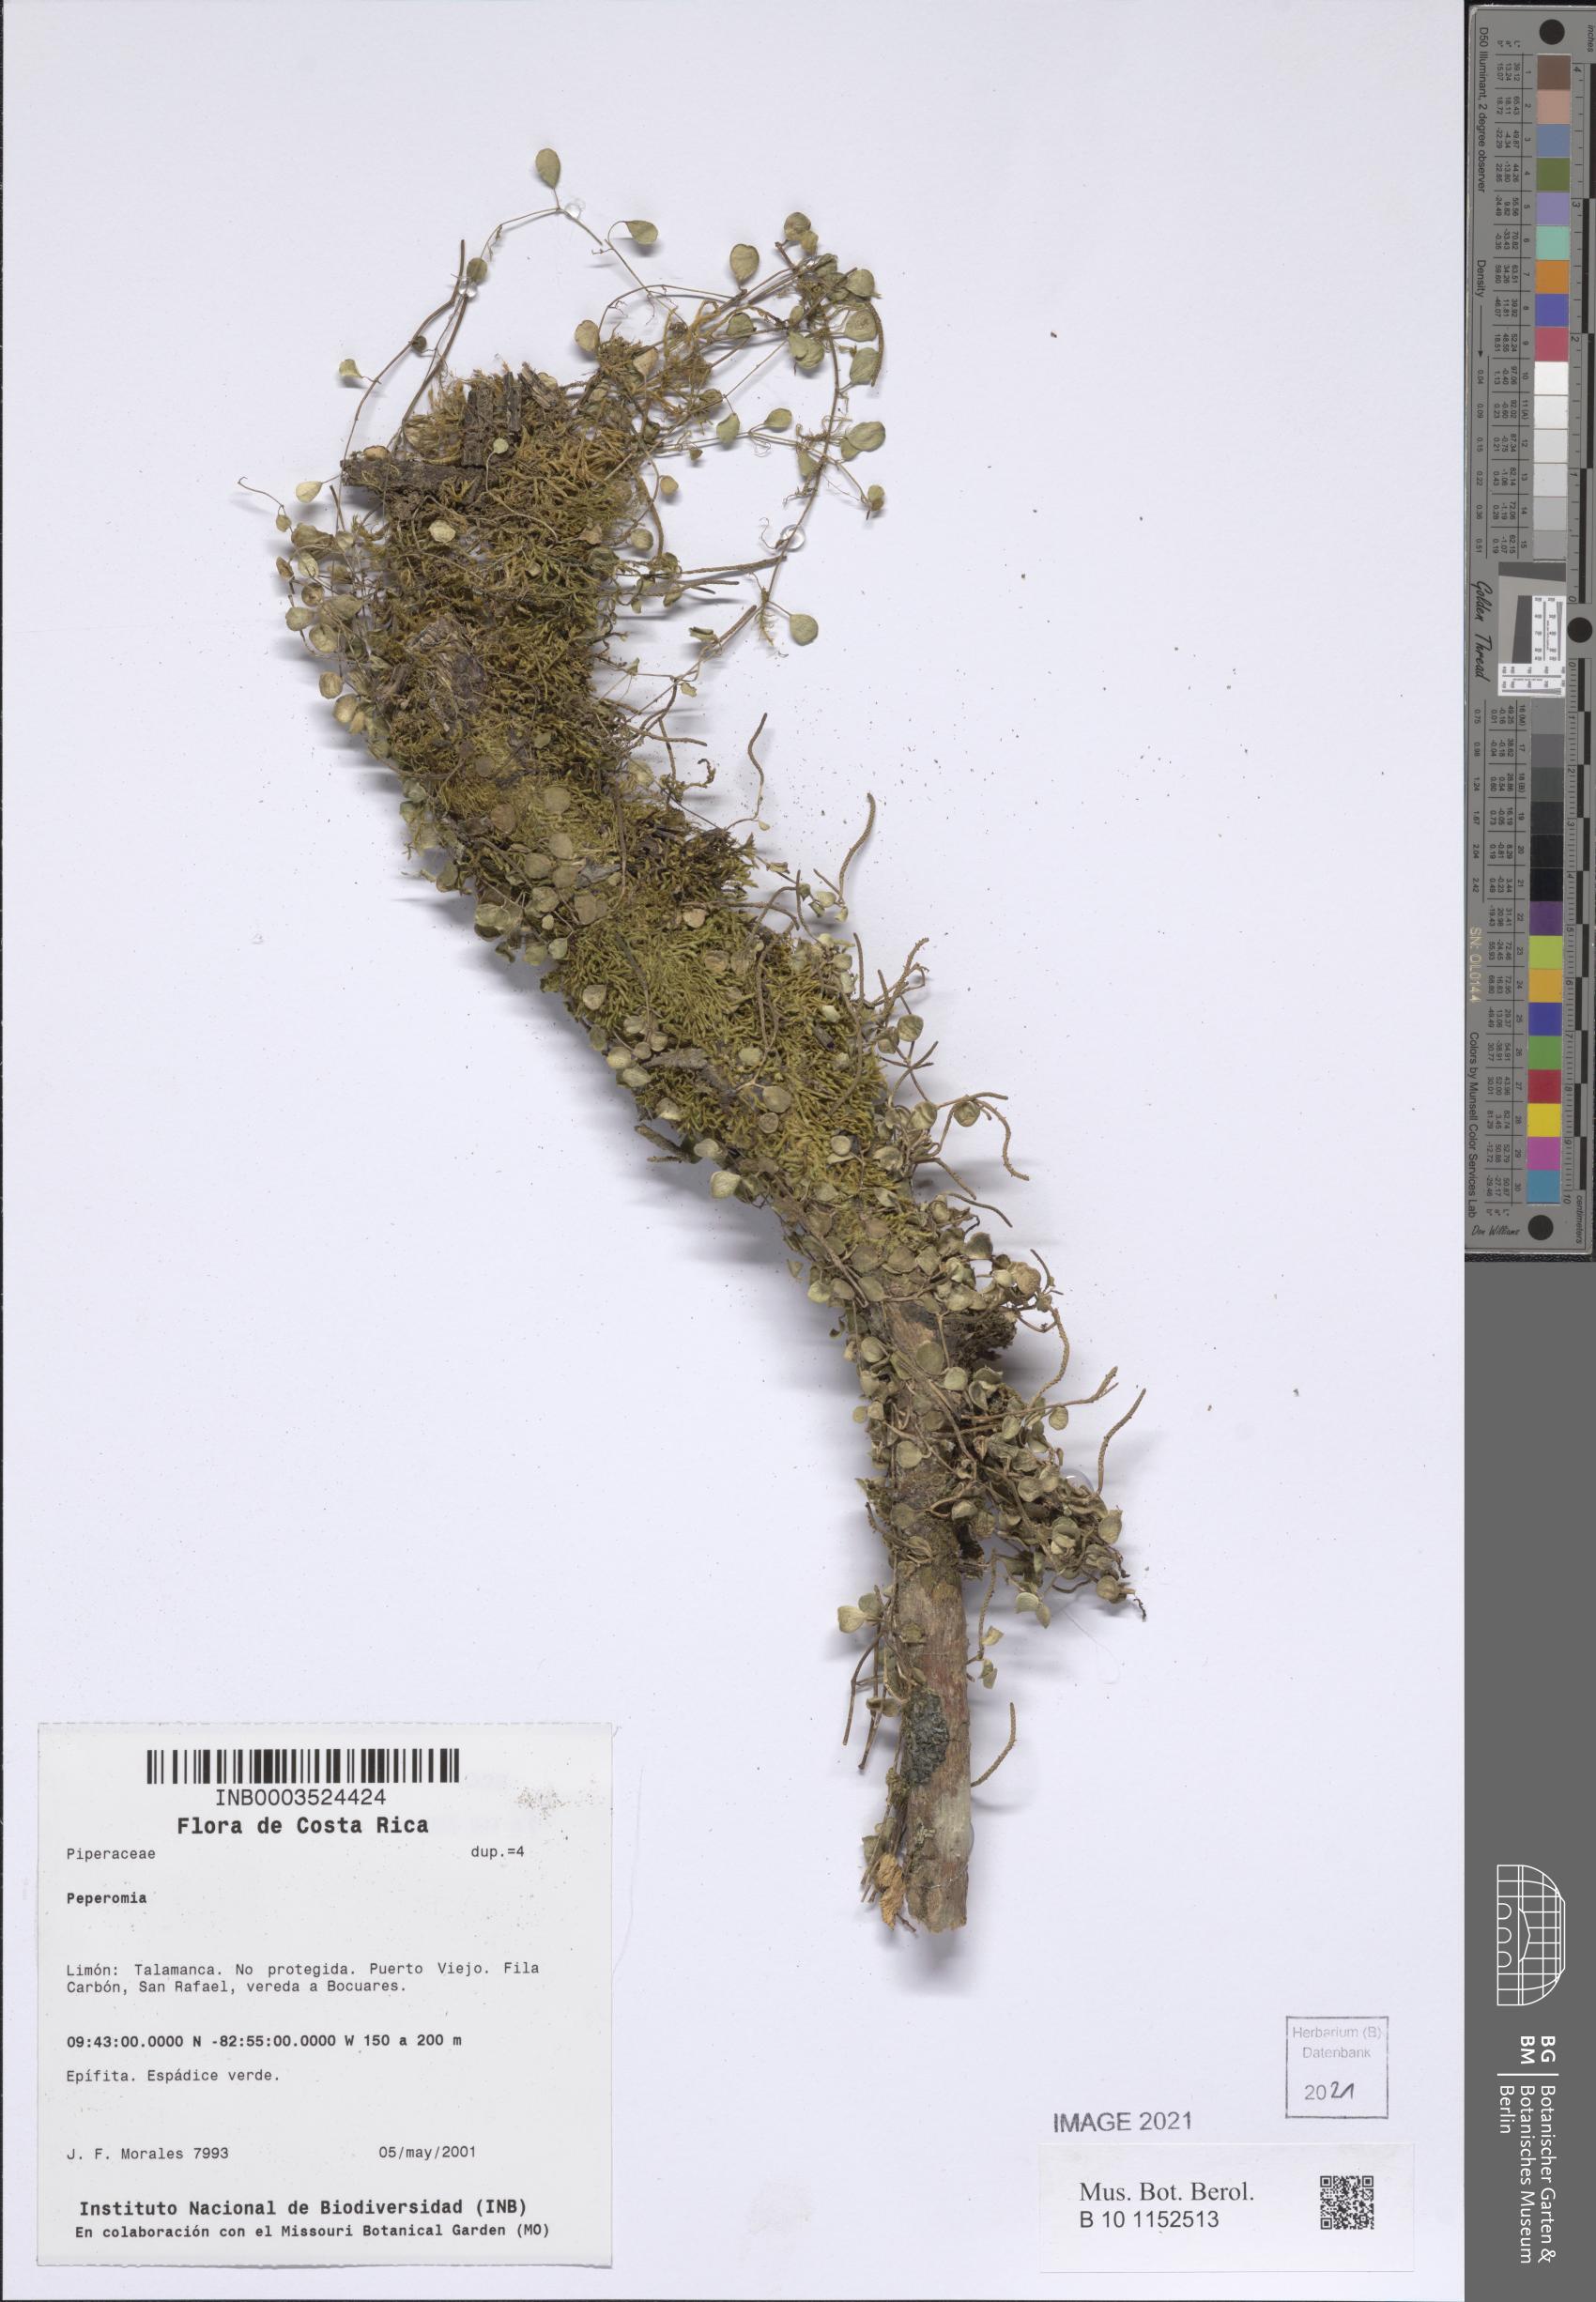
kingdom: Plantae
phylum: Tracheophyta
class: Magnoliopsida
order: Piperales
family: Piperaceae
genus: Peperomia
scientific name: Peperomia
